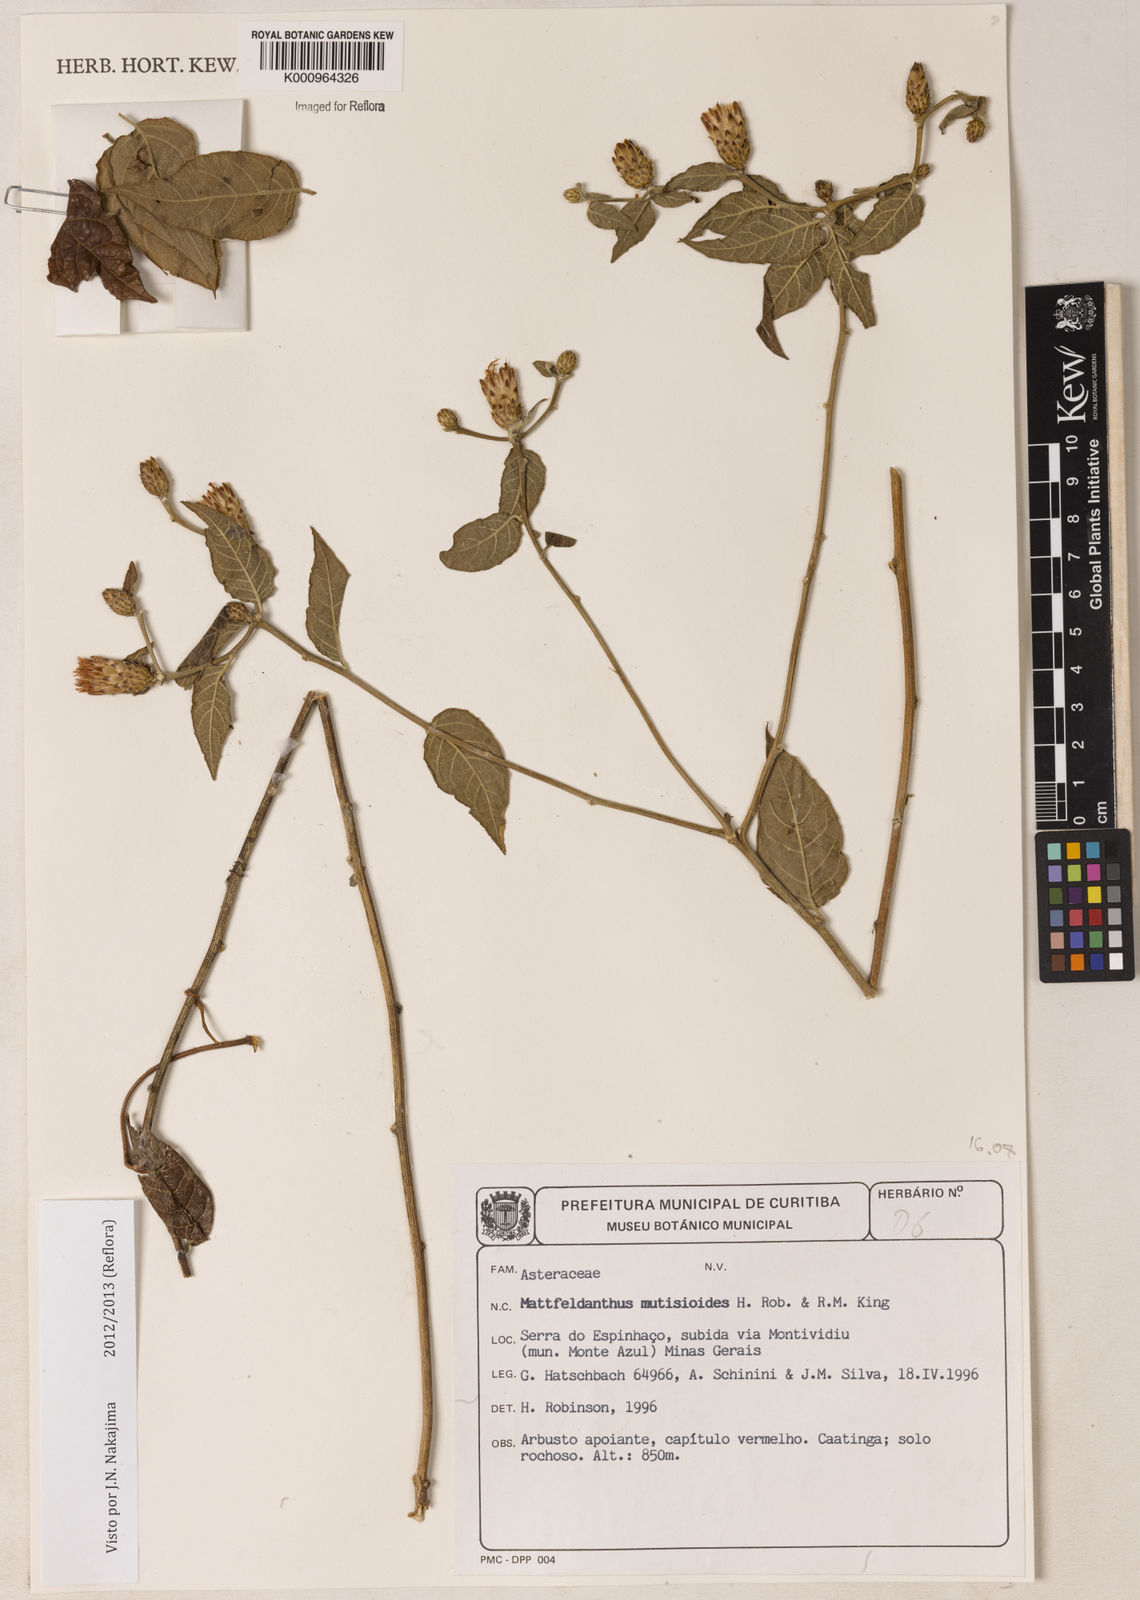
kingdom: Plantae
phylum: Tracheophyta
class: Magnoliopsida
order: Asterales
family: Asteraceae
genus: Mattfeldanthus
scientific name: Mattfeldanthus mutisioides
